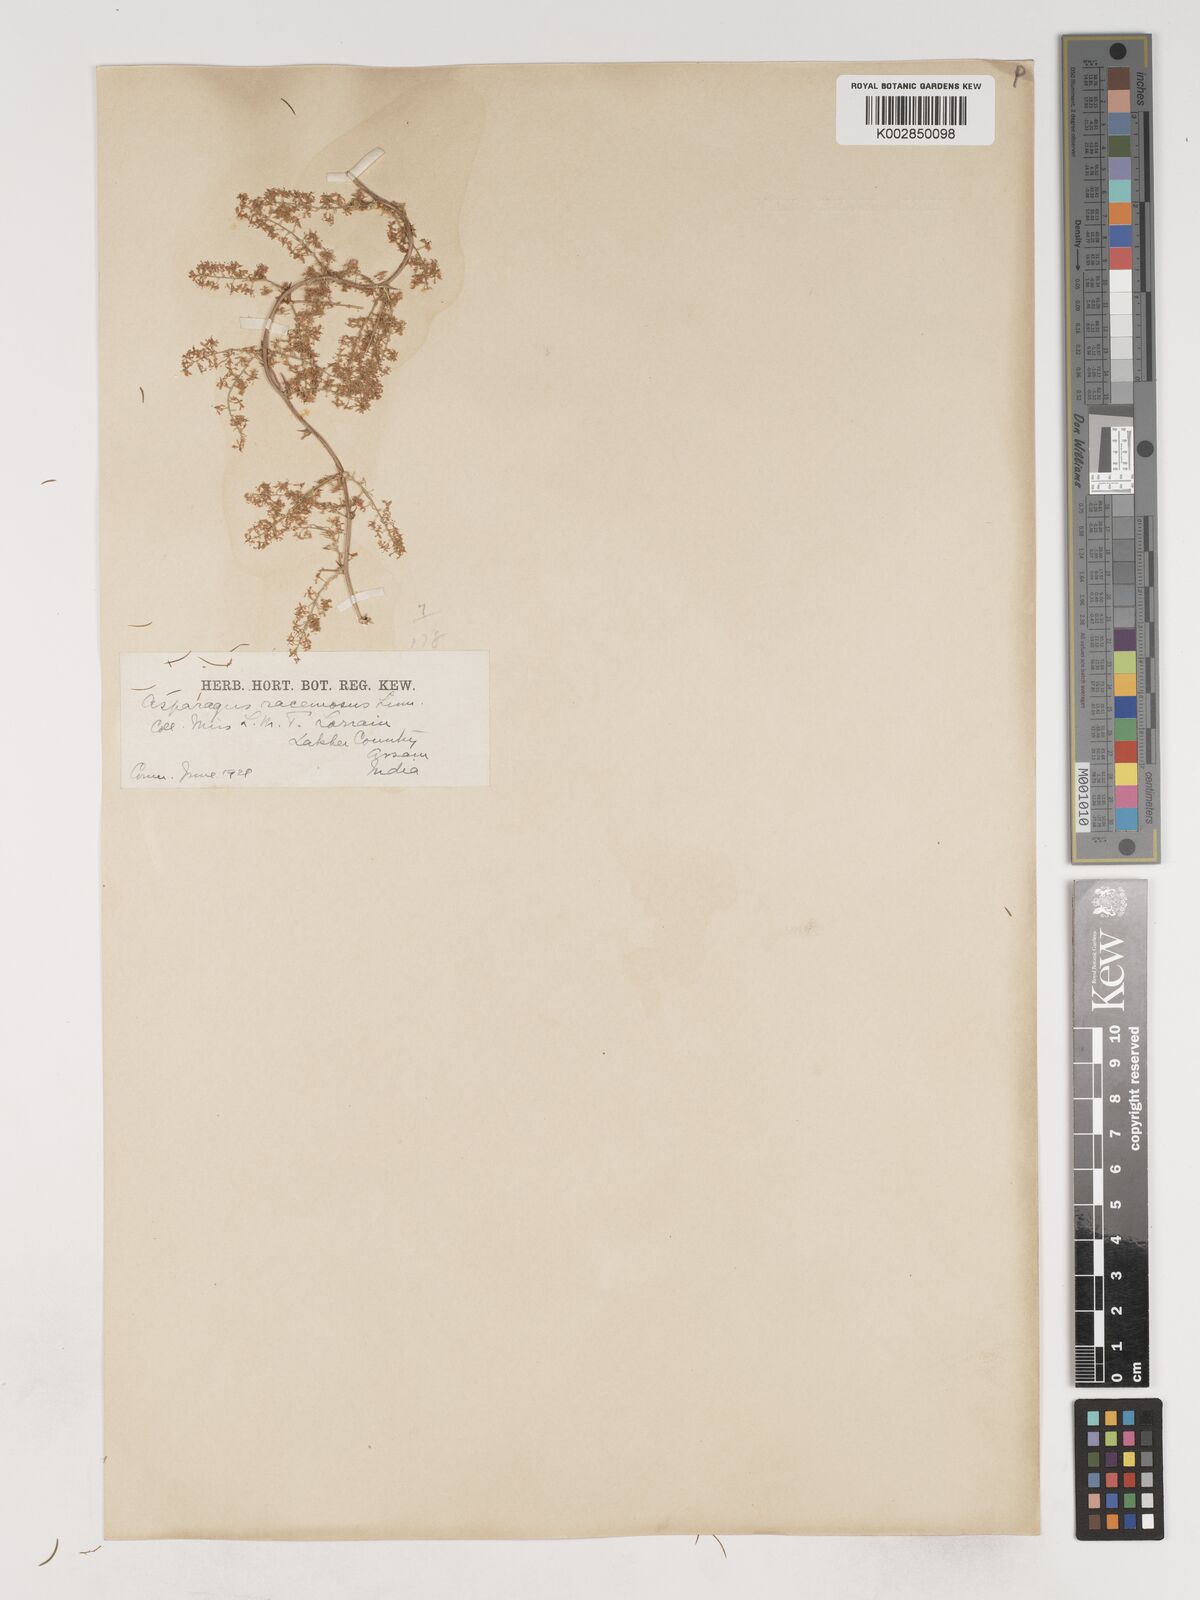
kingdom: Plantae
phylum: Tracheophyta
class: Liliopsida
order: Asparagales
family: Asparagaceae
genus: Asparagus
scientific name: Asparagus racemosus
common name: Asparagus-fern
